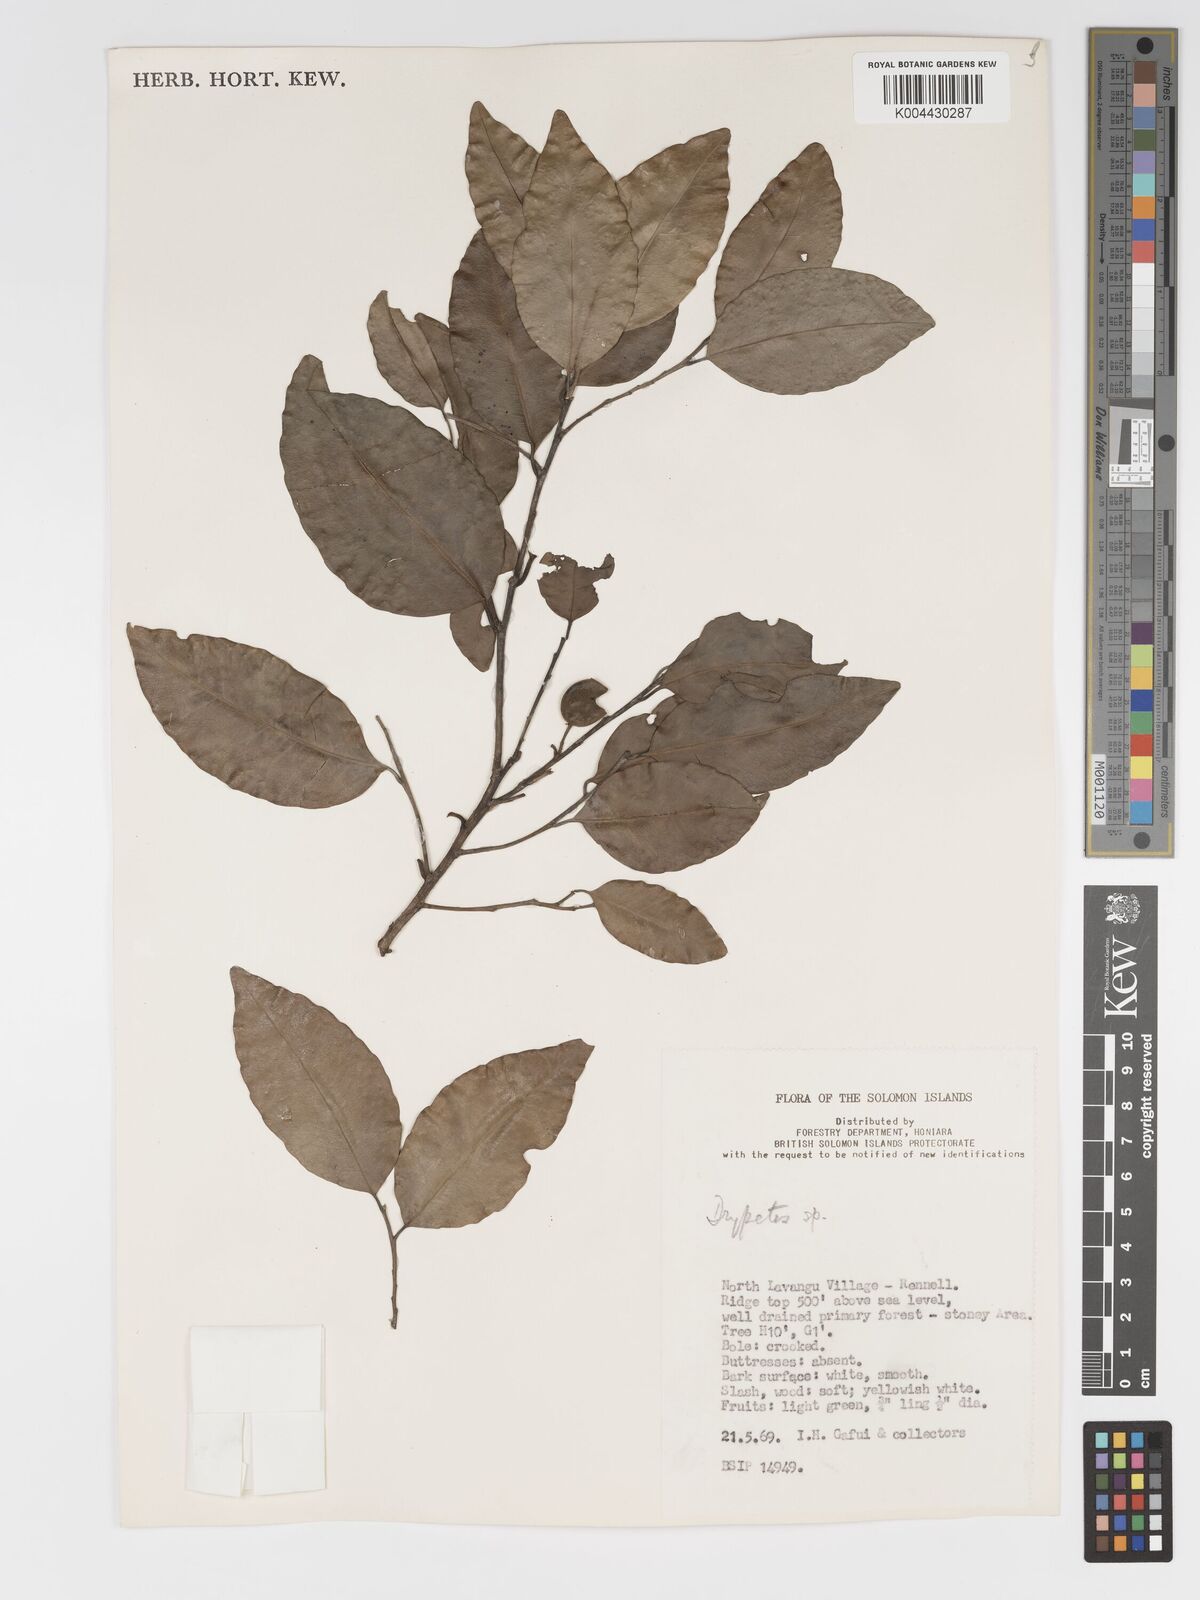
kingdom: Plantae
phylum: Tracheophyta
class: Magnoliopsida
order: Malpighiales
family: Putranjivaceae
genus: Putranjiva
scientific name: Putranjiva roxburghii
